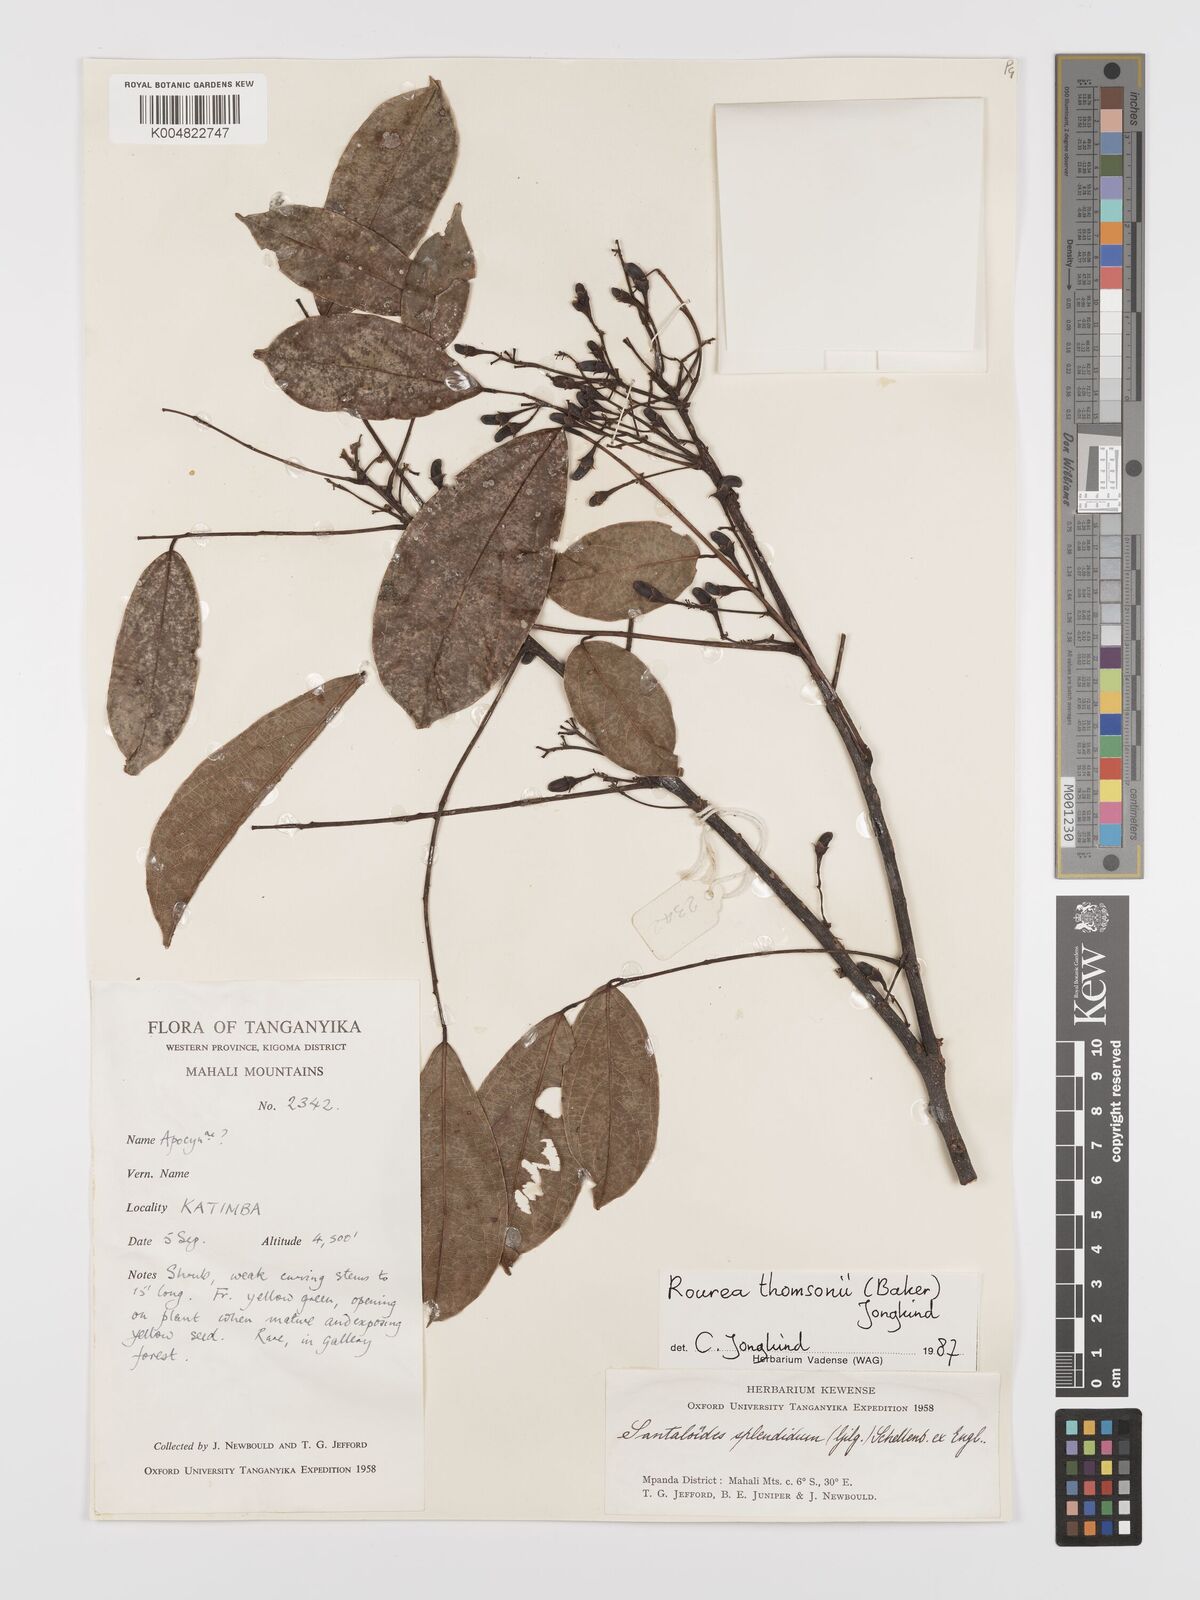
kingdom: Plantae
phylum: Tracheophyta
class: Magnoliopsida
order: Oxalidales
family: Connaraceae
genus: Rourea
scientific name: Rourea minor
